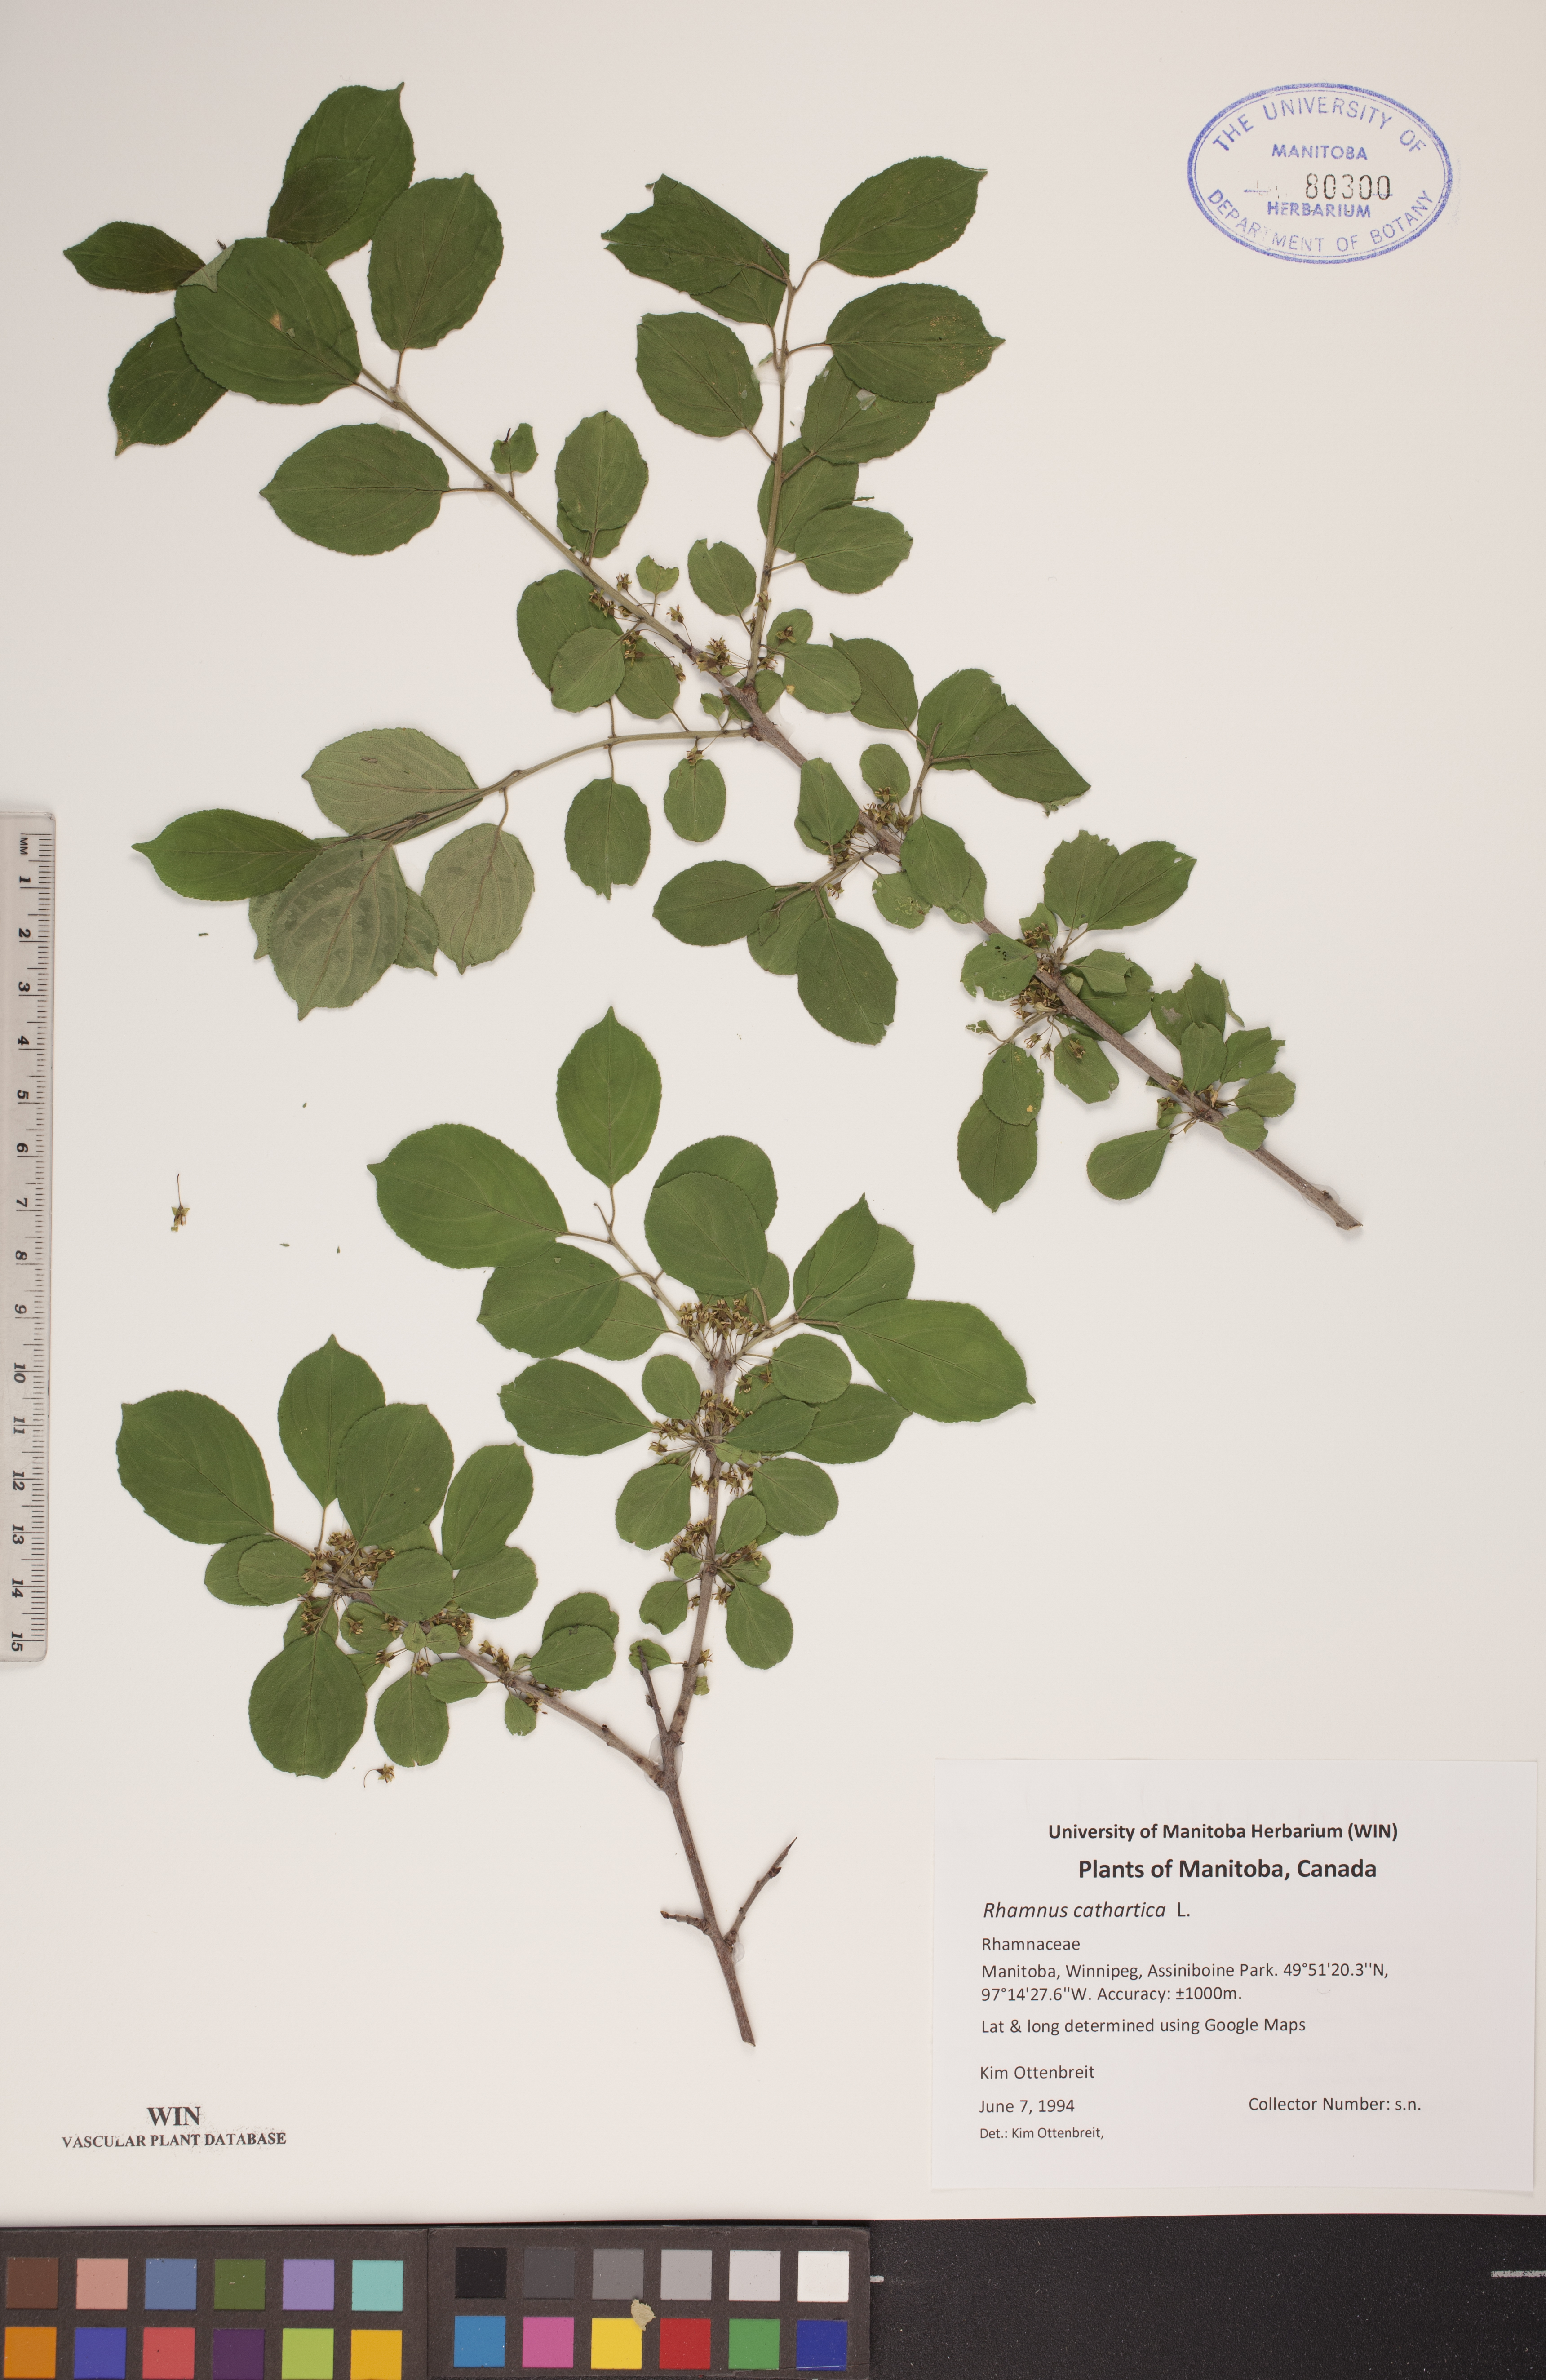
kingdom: Plantae
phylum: Tracheophyta
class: Magnoliopsida
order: Rosales
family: Rhamnaceae
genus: Rhamnus
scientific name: Rhamnus cathartica
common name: Common buckthorn
